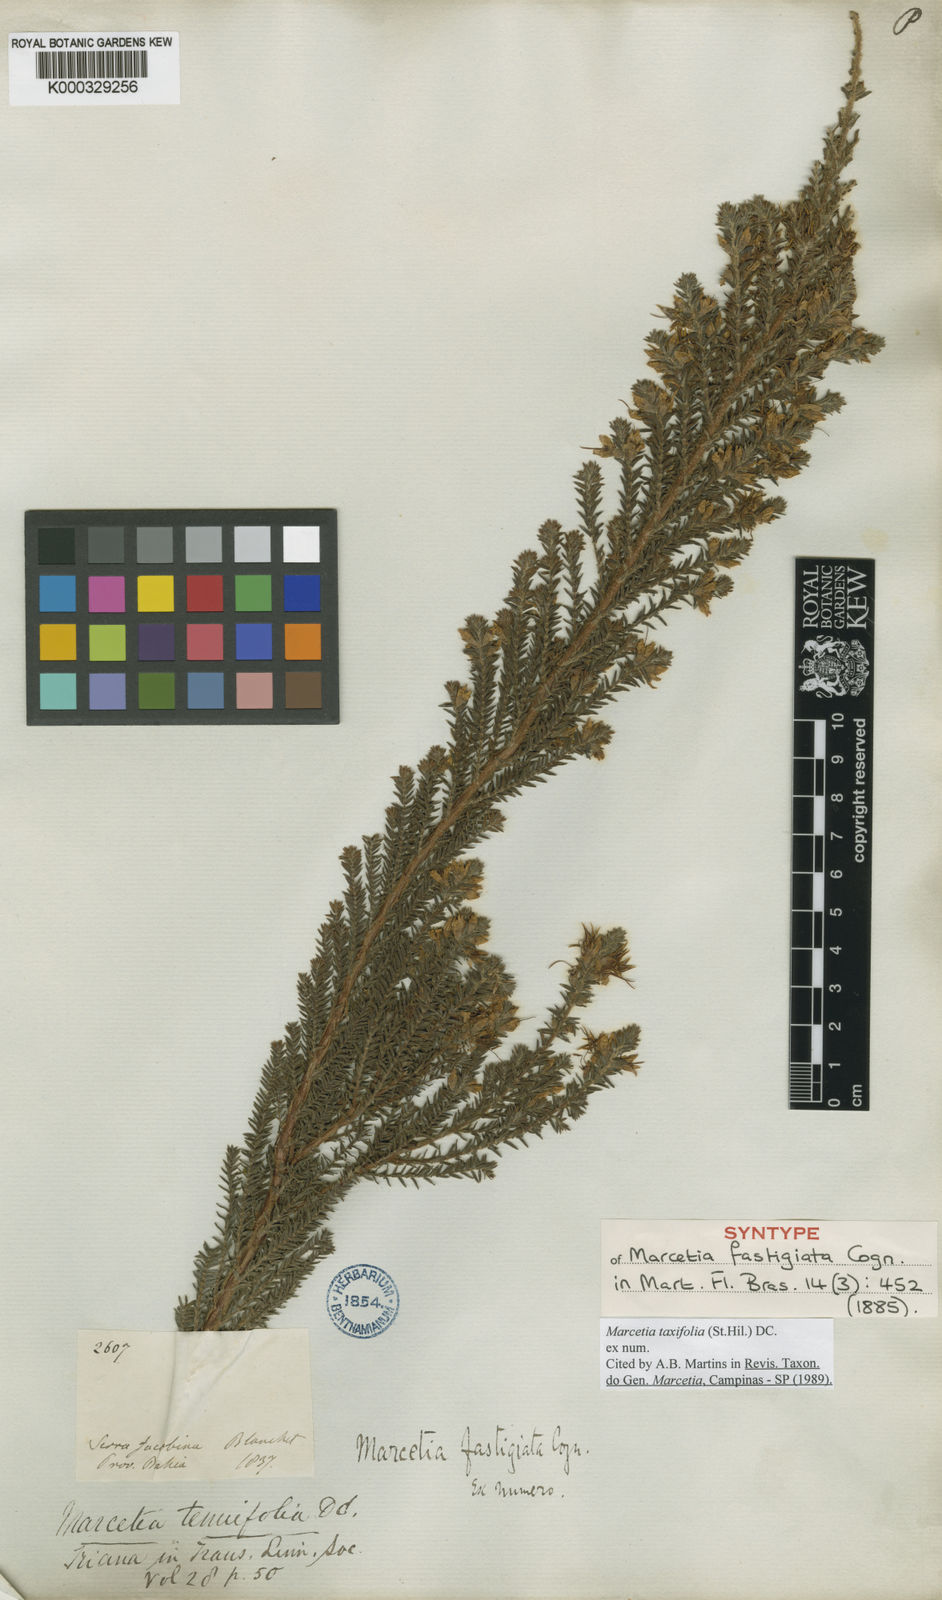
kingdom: Plantae
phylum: Tracheophyta
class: Magnoliopsida
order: Myrtales
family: Melastomataceae
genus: Marcetia
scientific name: Marcetia taxifolia
